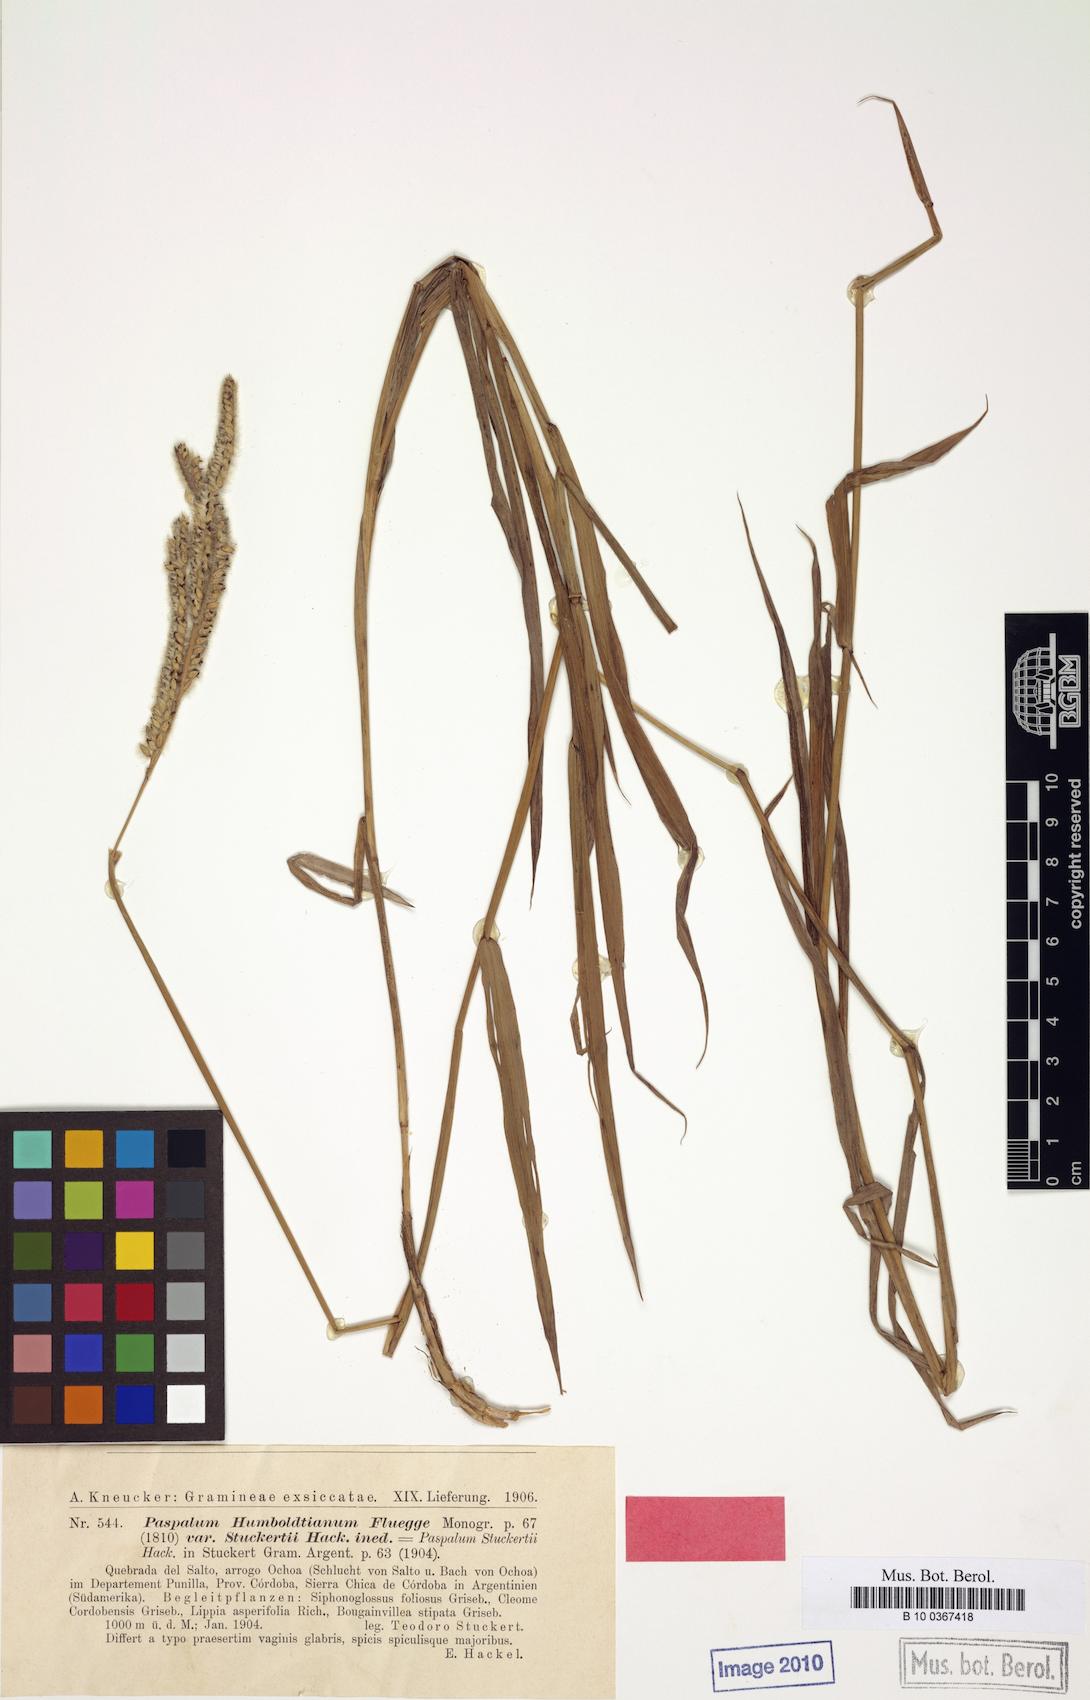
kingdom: Plantae
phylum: Tracheophyta
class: Liliopsida
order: Poales
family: Poaceae
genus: Paspalum
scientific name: Paspalum humboldtianum
